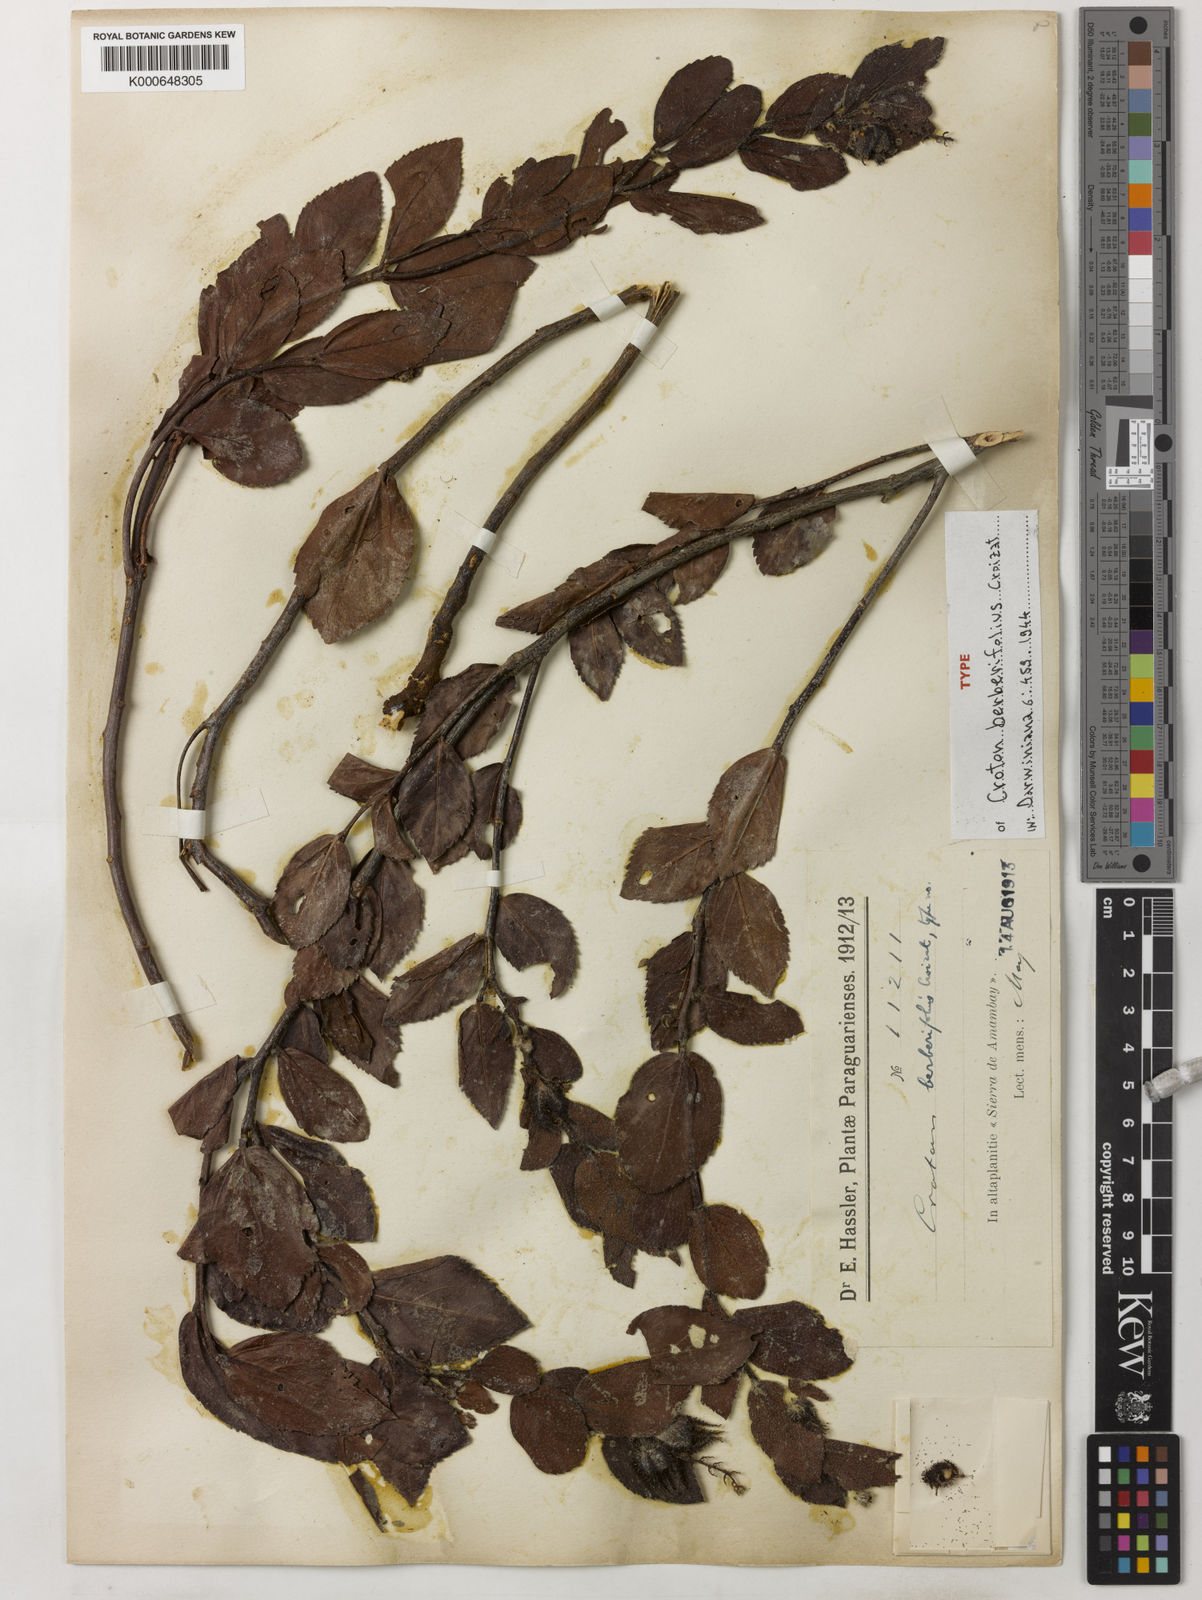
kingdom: Plantae
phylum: Tracheophyta
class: Magnoliopsida
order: Malpighiales
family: Euphorbiaceae
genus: Croton
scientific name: Croton berberifolius
